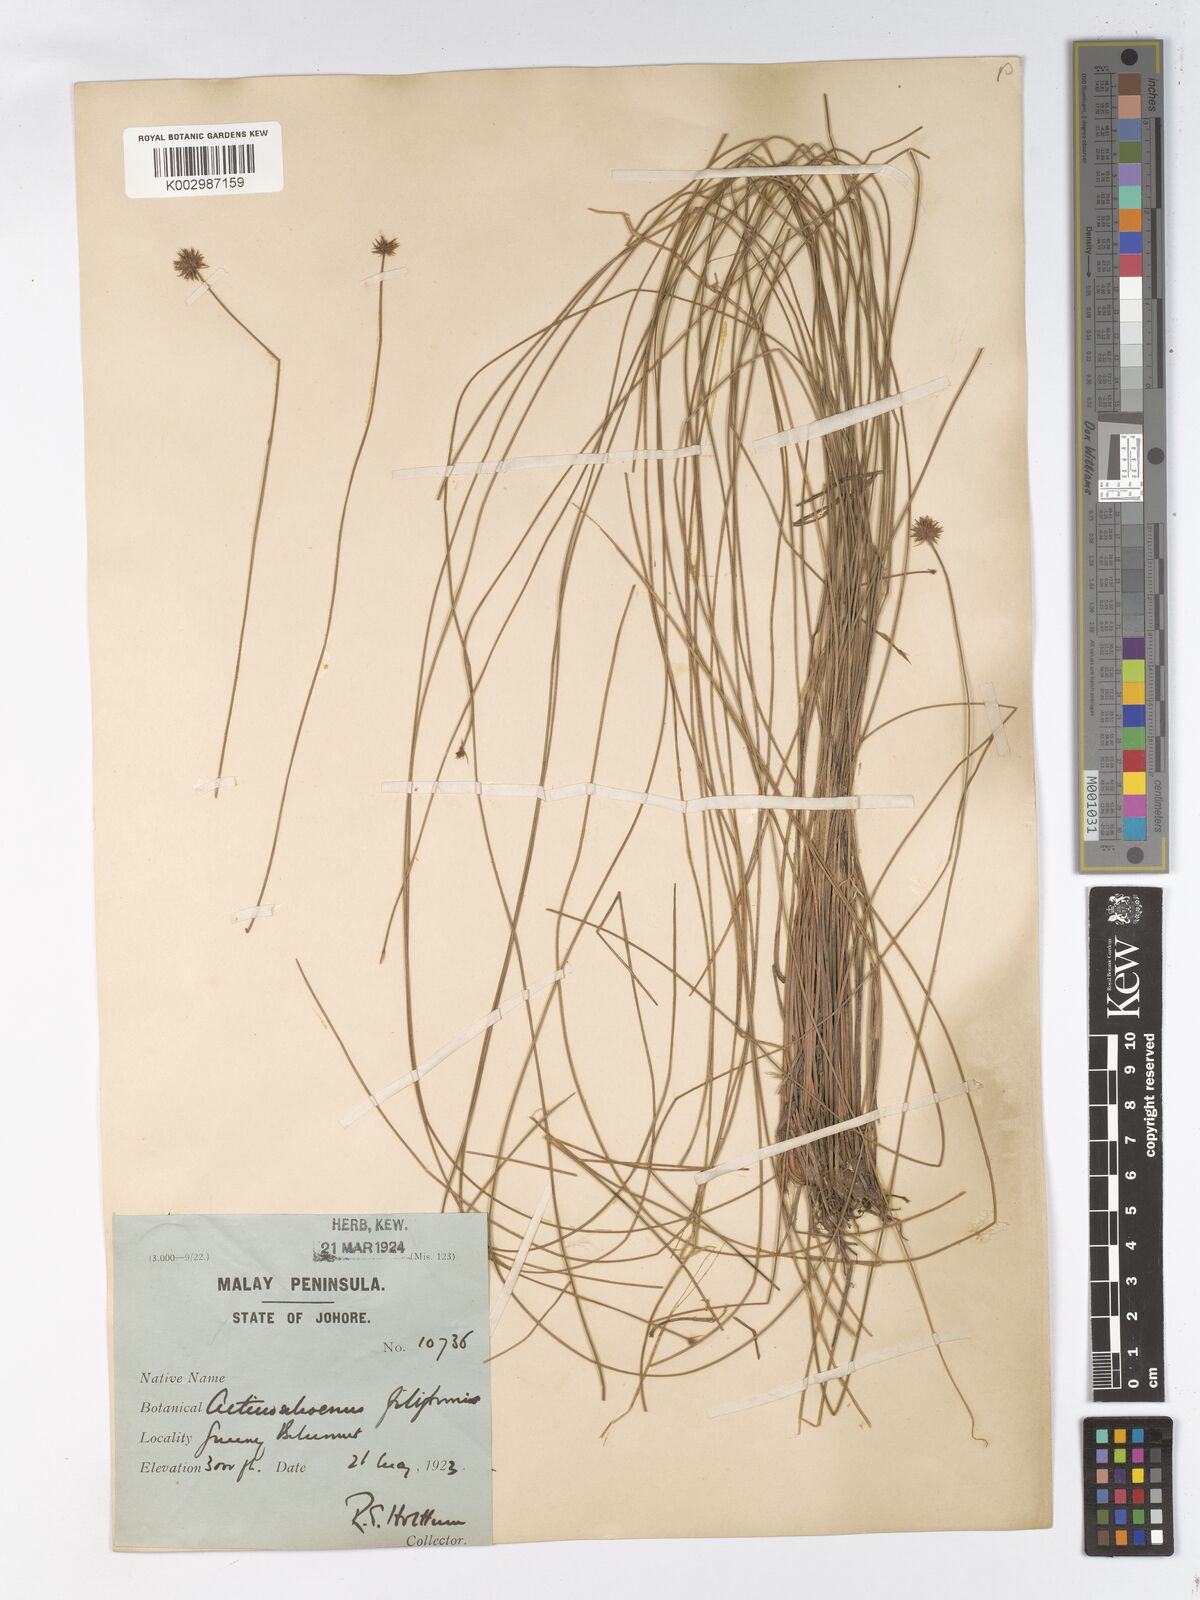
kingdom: Plantae
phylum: Tracheophyta
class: Liliopsida
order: Poales
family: Cyperaceae
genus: Actinoschoenus
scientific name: Actinoschoenus aphyllus
